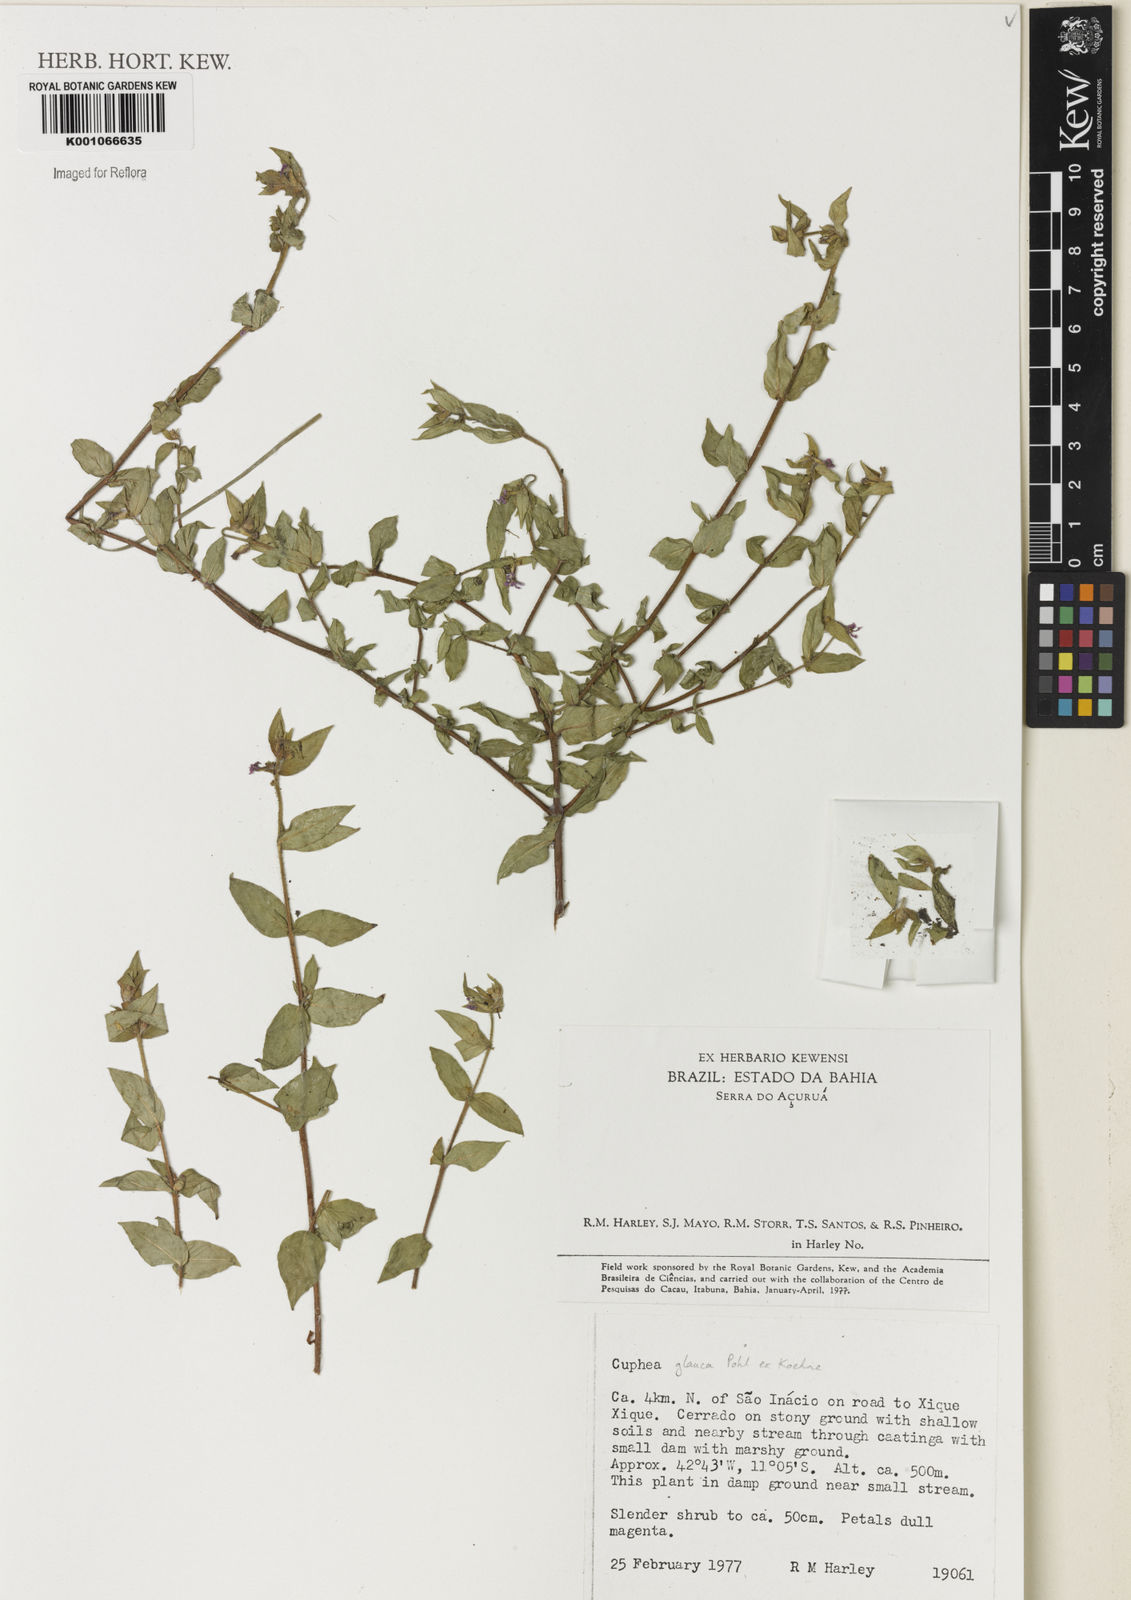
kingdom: Plantae
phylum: Tracheophyta
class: Magnoliopsida
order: Myrtales
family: Lythraceae
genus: Cuphea
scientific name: Cuphea glauca
